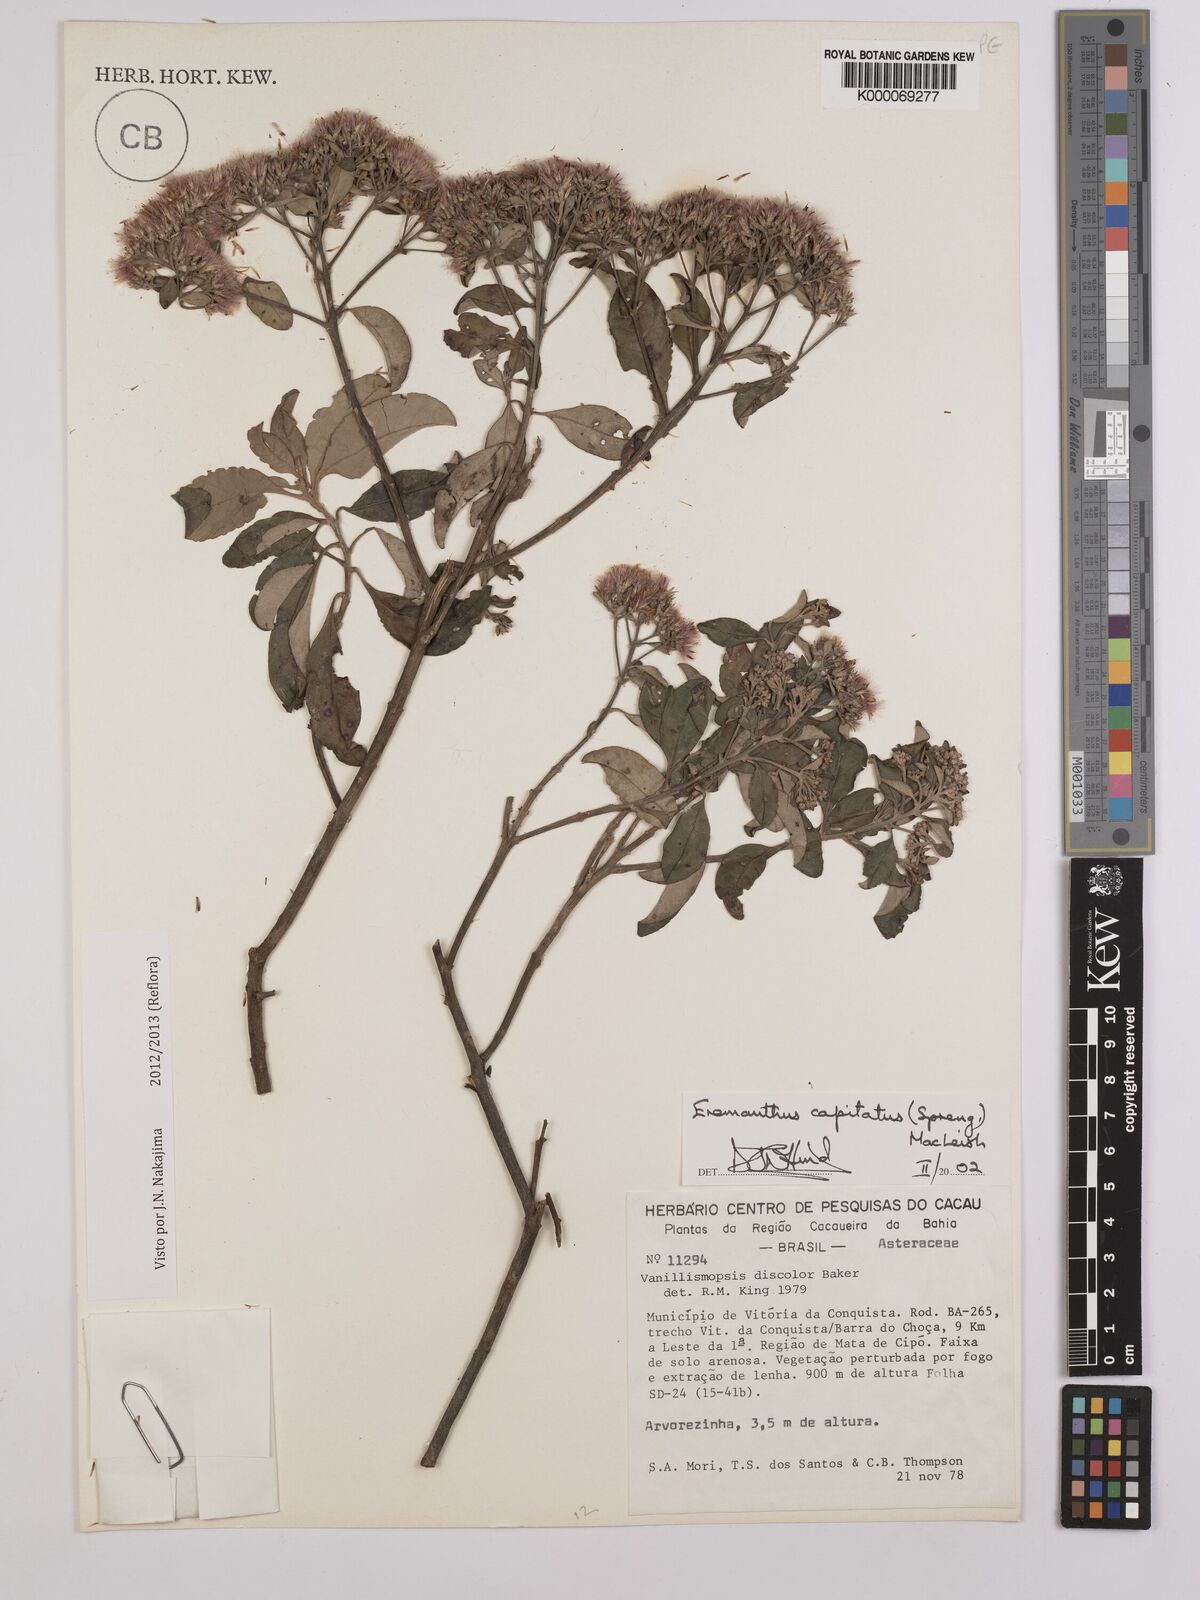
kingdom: Plantae
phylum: Tracheophyta
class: Magnoliopsida
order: Asterales
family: Asteraceae
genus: Eremanthus
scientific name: Eremanthus capitatus
